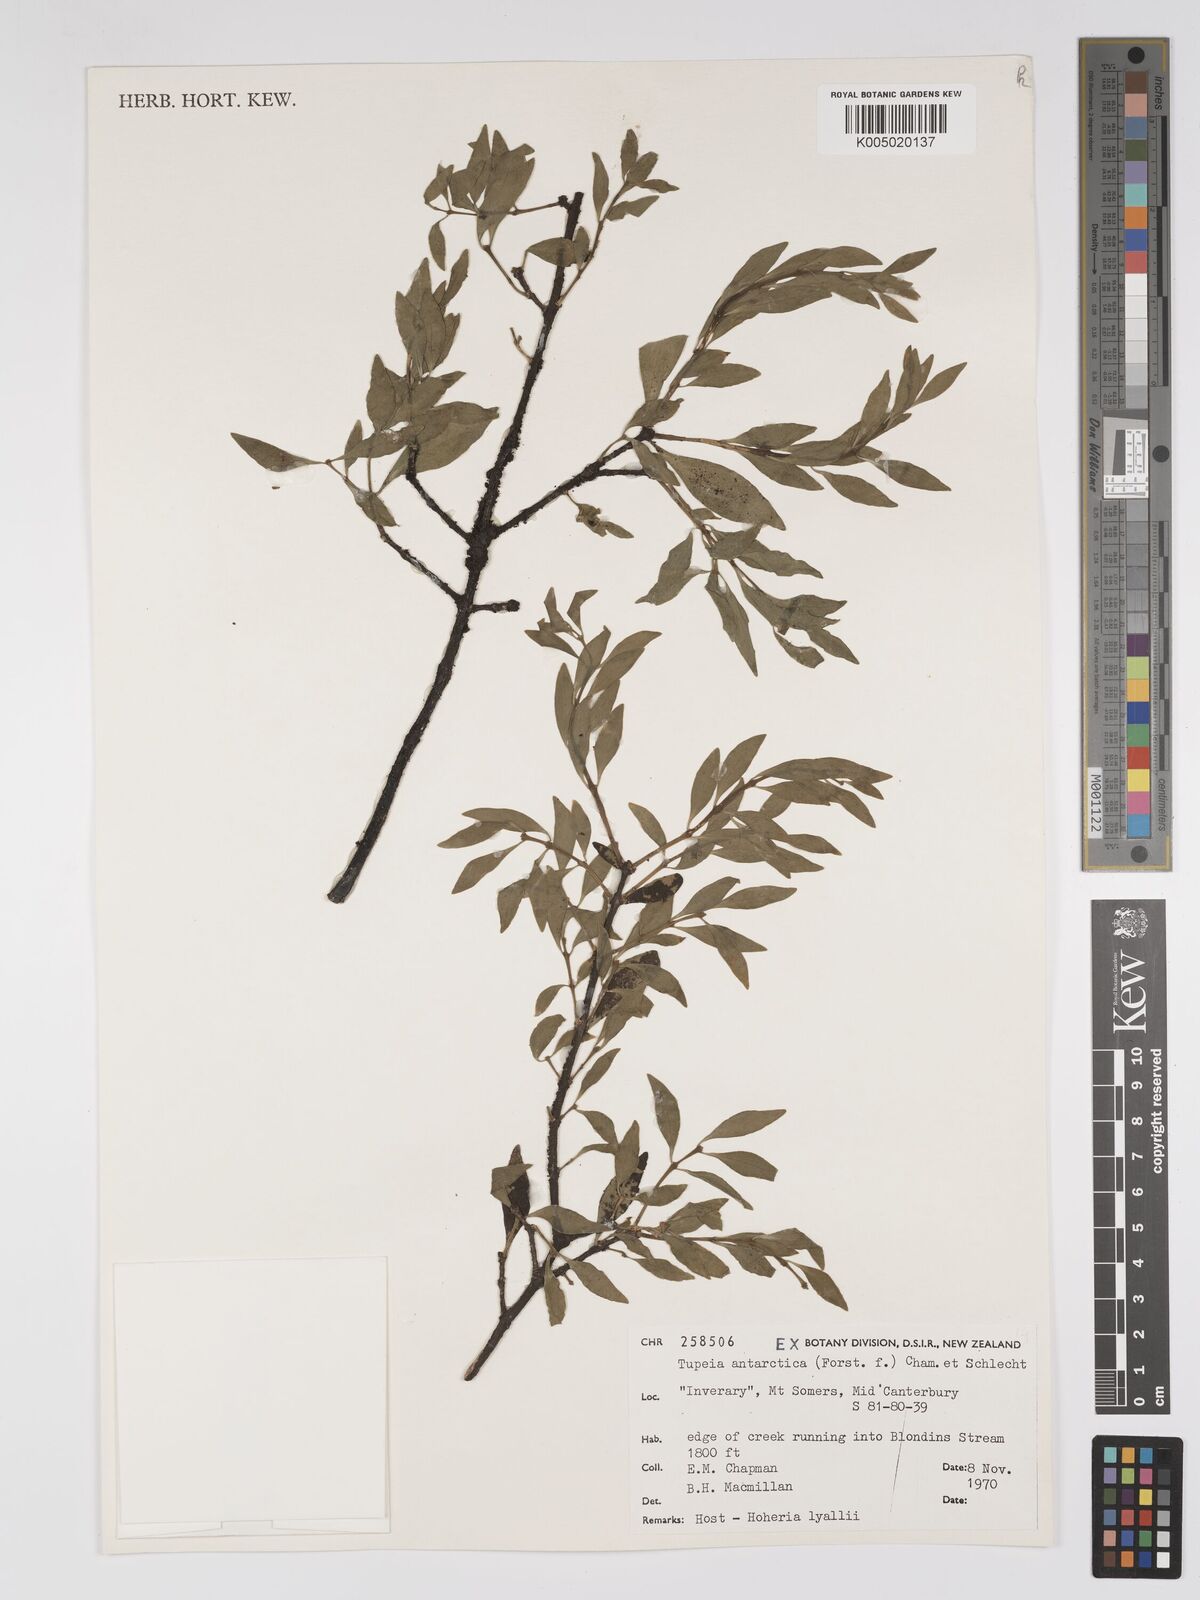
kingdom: Plantae
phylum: Tracheophyta
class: Magnoliopsida
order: Santalales
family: Loranthaceae
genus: Tupeia
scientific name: Tupeia antarctica
